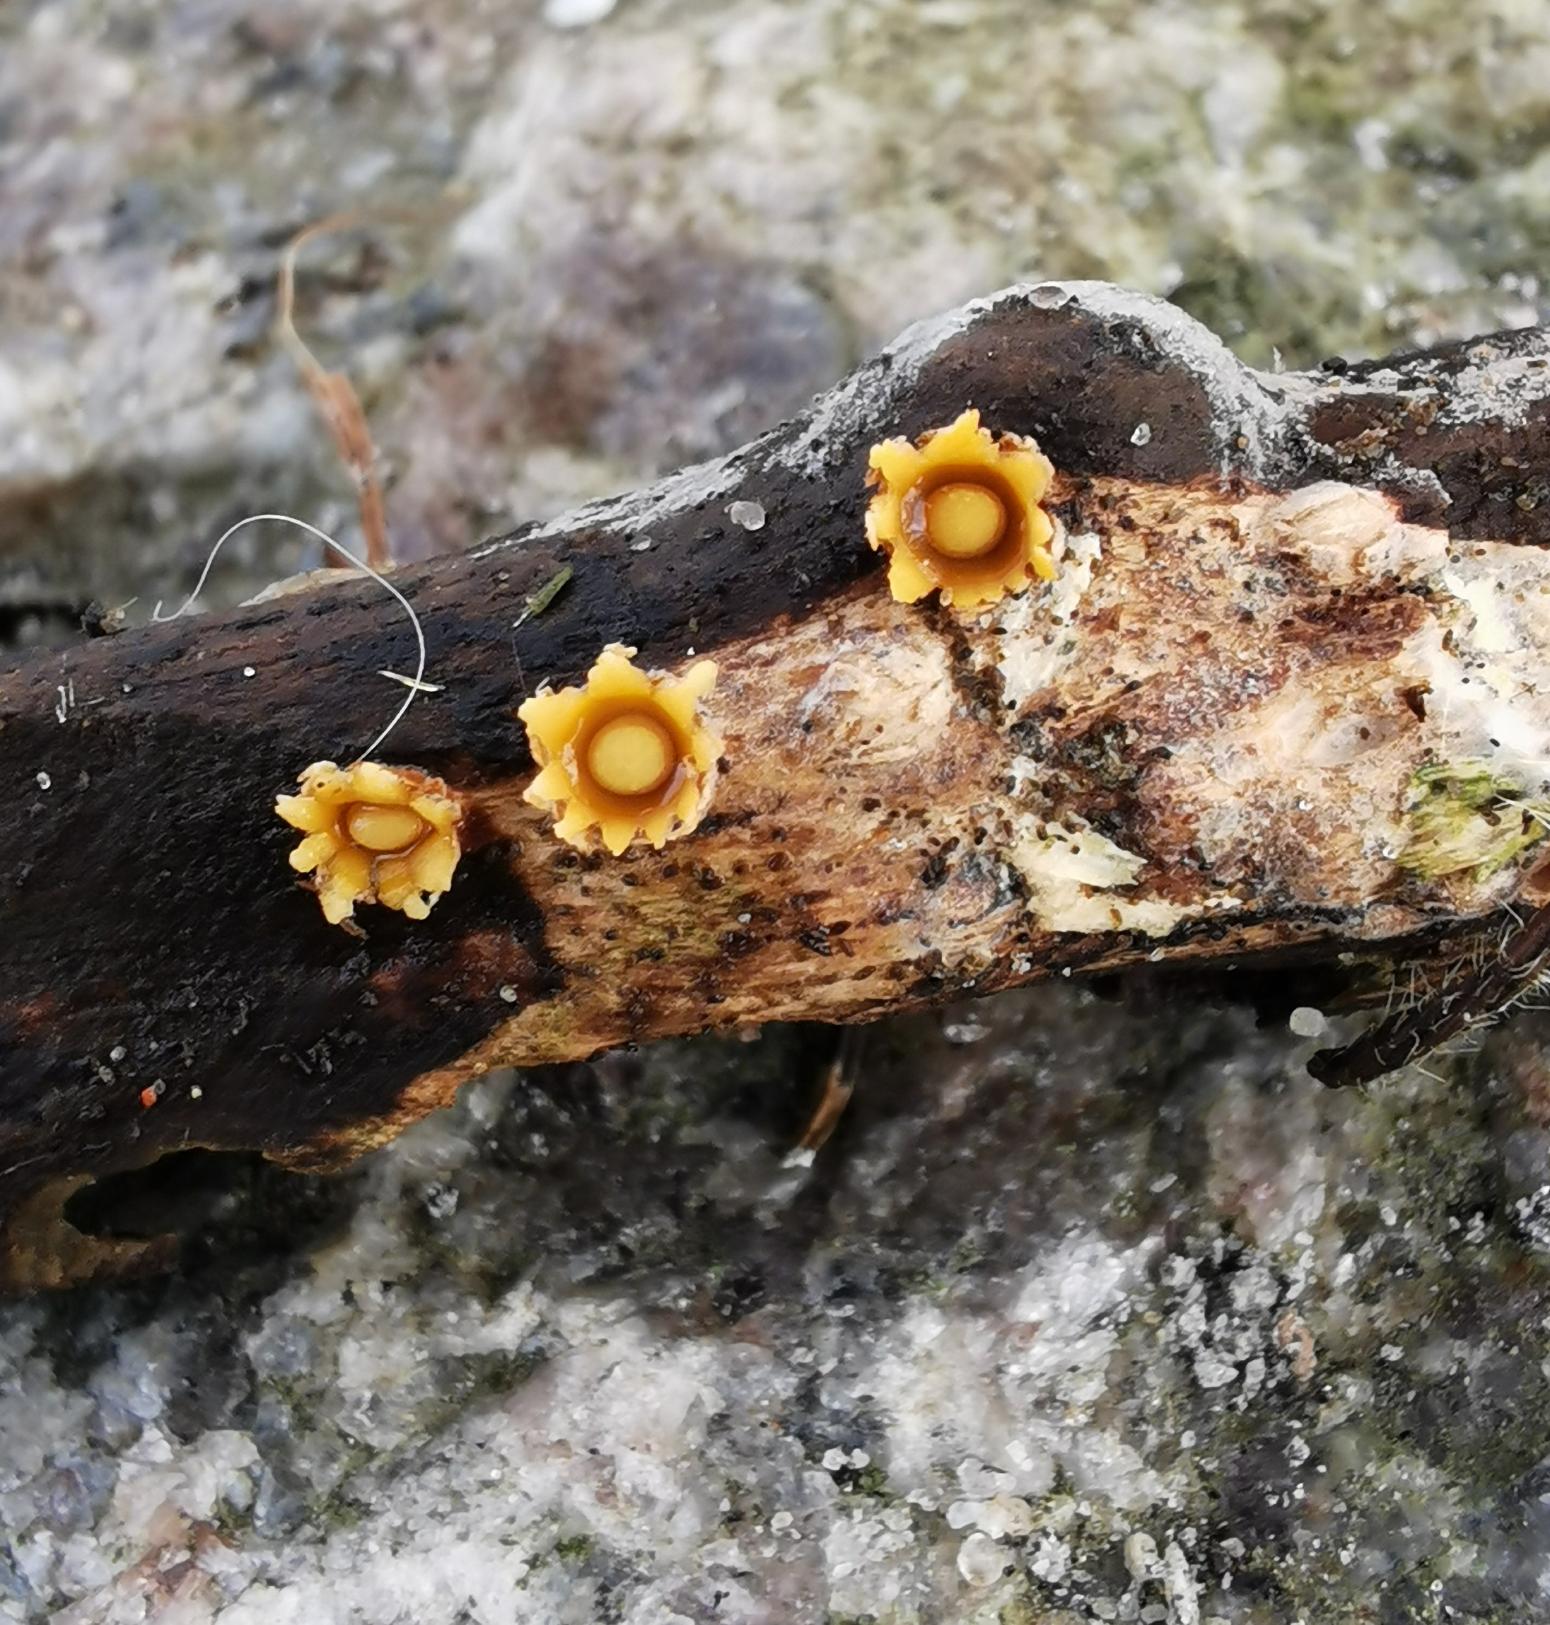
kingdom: Fungi
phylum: Basidiomycota
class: Agaricomycetes
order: Geastrales
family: Geastraceae
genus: Sphaerobolus
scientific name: Sphaerobolus stellatus
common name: Bombekaster
